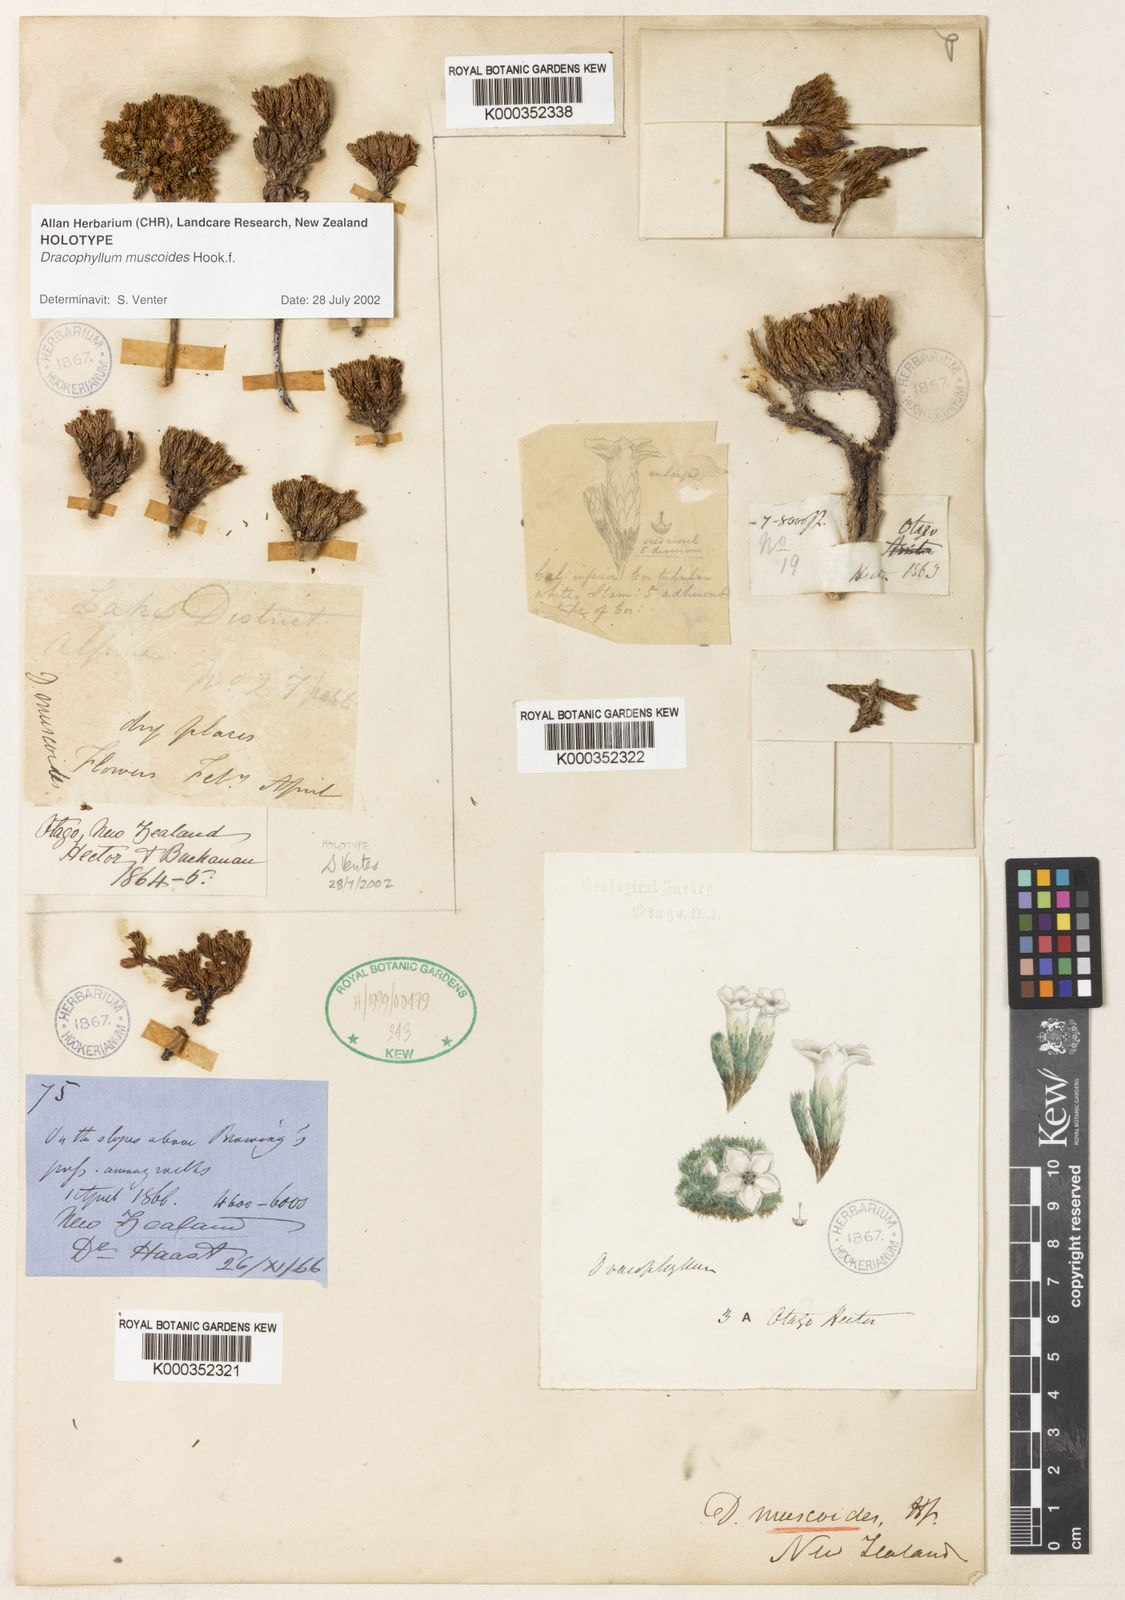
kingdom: Plantae
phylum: Tracheophyta
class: Magnoliopsida
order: Ericales
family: Ericaceae
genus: Dracophyllum
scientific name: Dracophyllum muscoides
